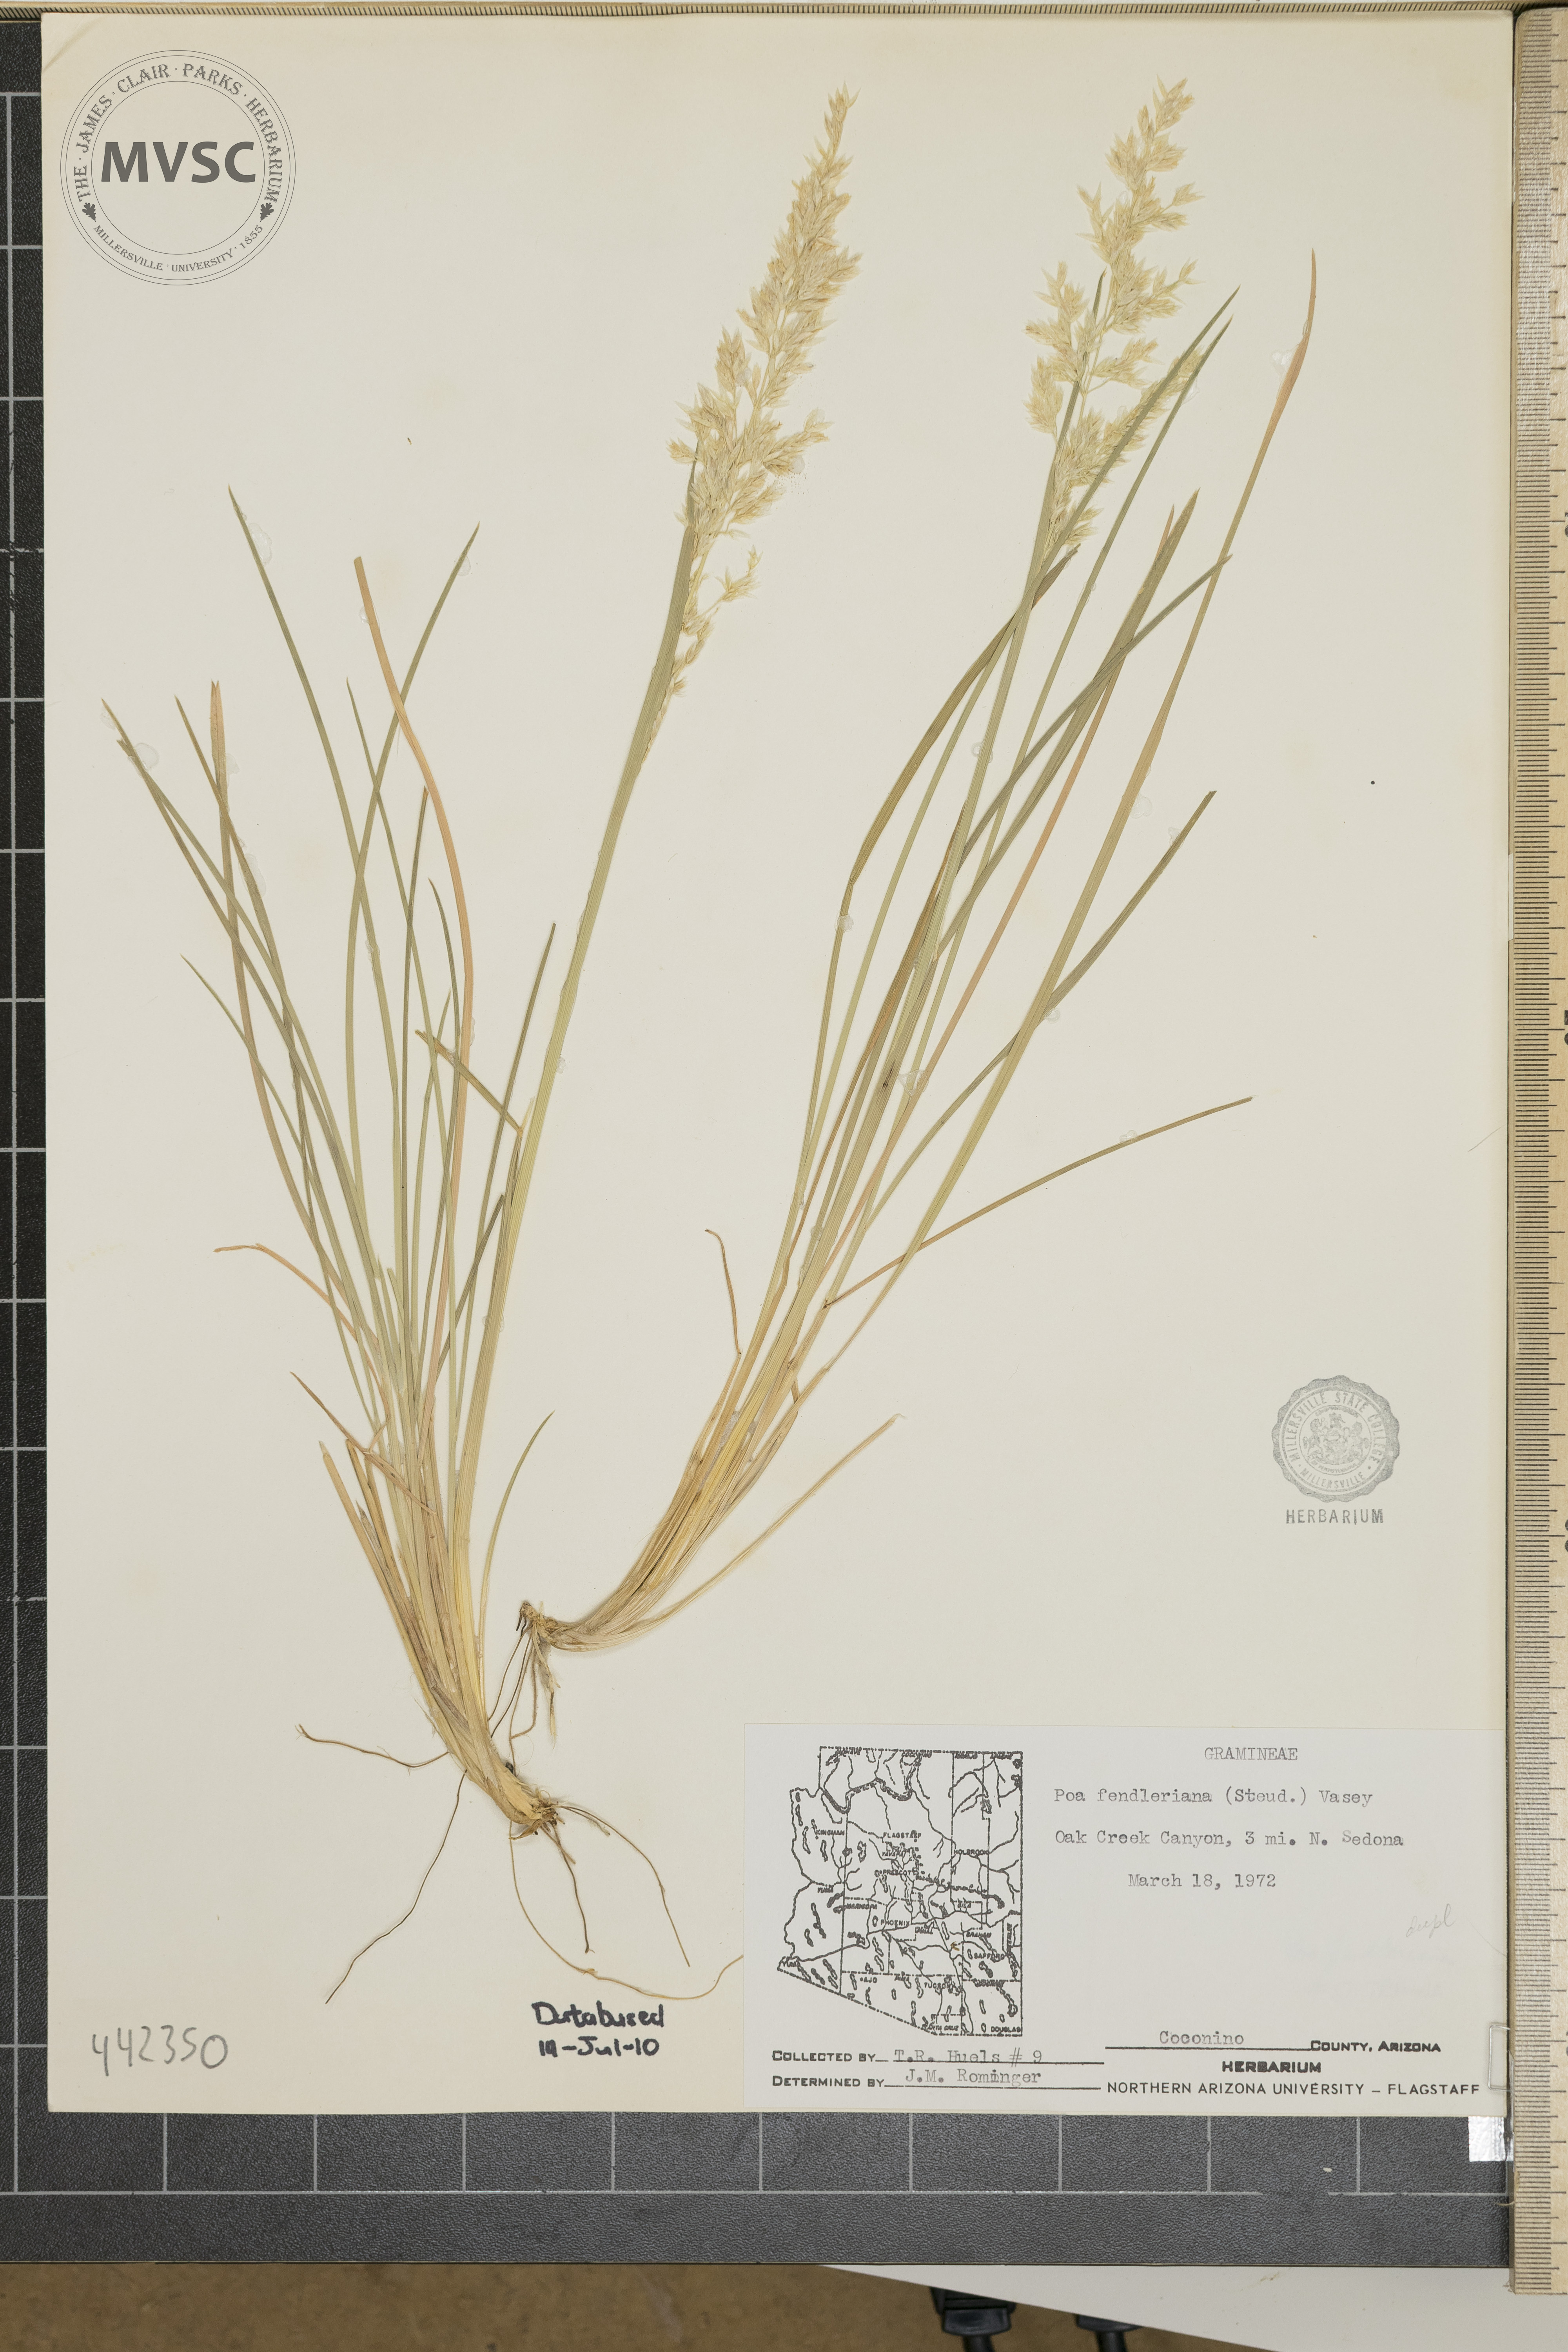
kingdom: Plantae
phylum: Tracheophyta
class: Liliopsida
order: Poales
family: Poaceae
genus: Poa
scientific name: Poa fendleriana
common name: Mutton bluegrass
